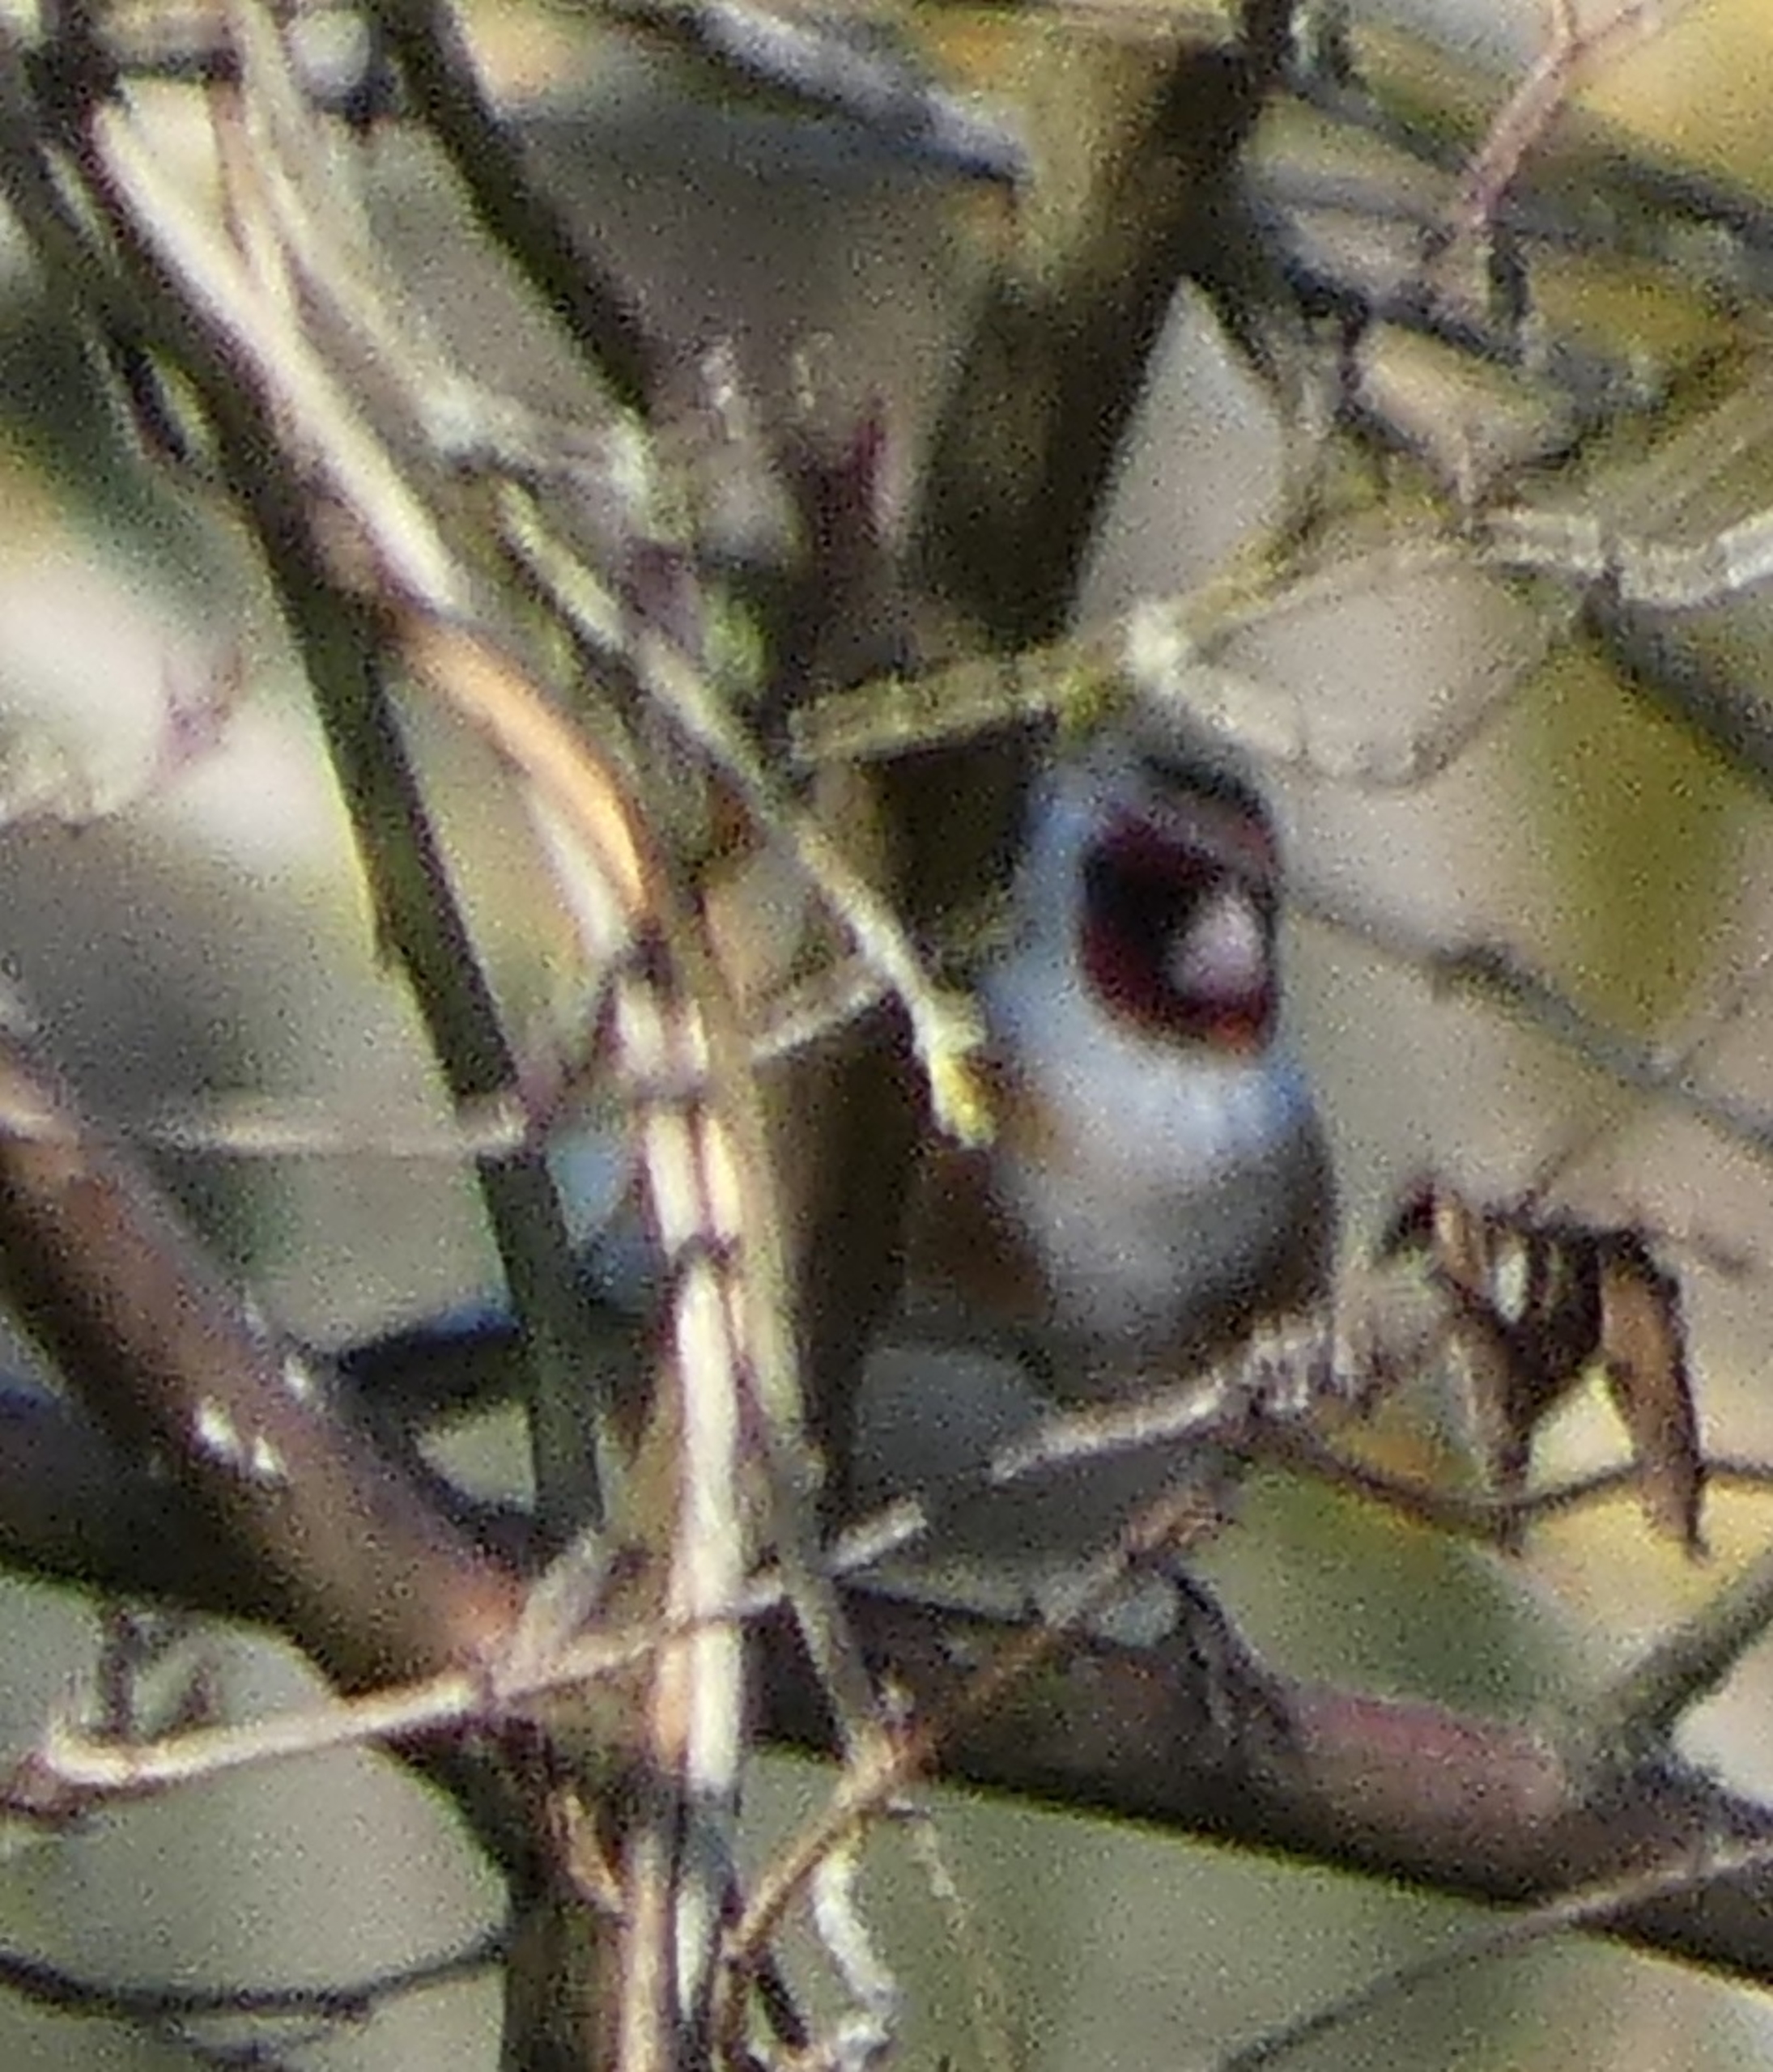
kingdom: Animalia
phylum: Chordata
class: Aves
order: Passeriformes
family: Fringillidae
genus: Carduelis
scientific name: Carduelis carduelis
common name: Stillits
